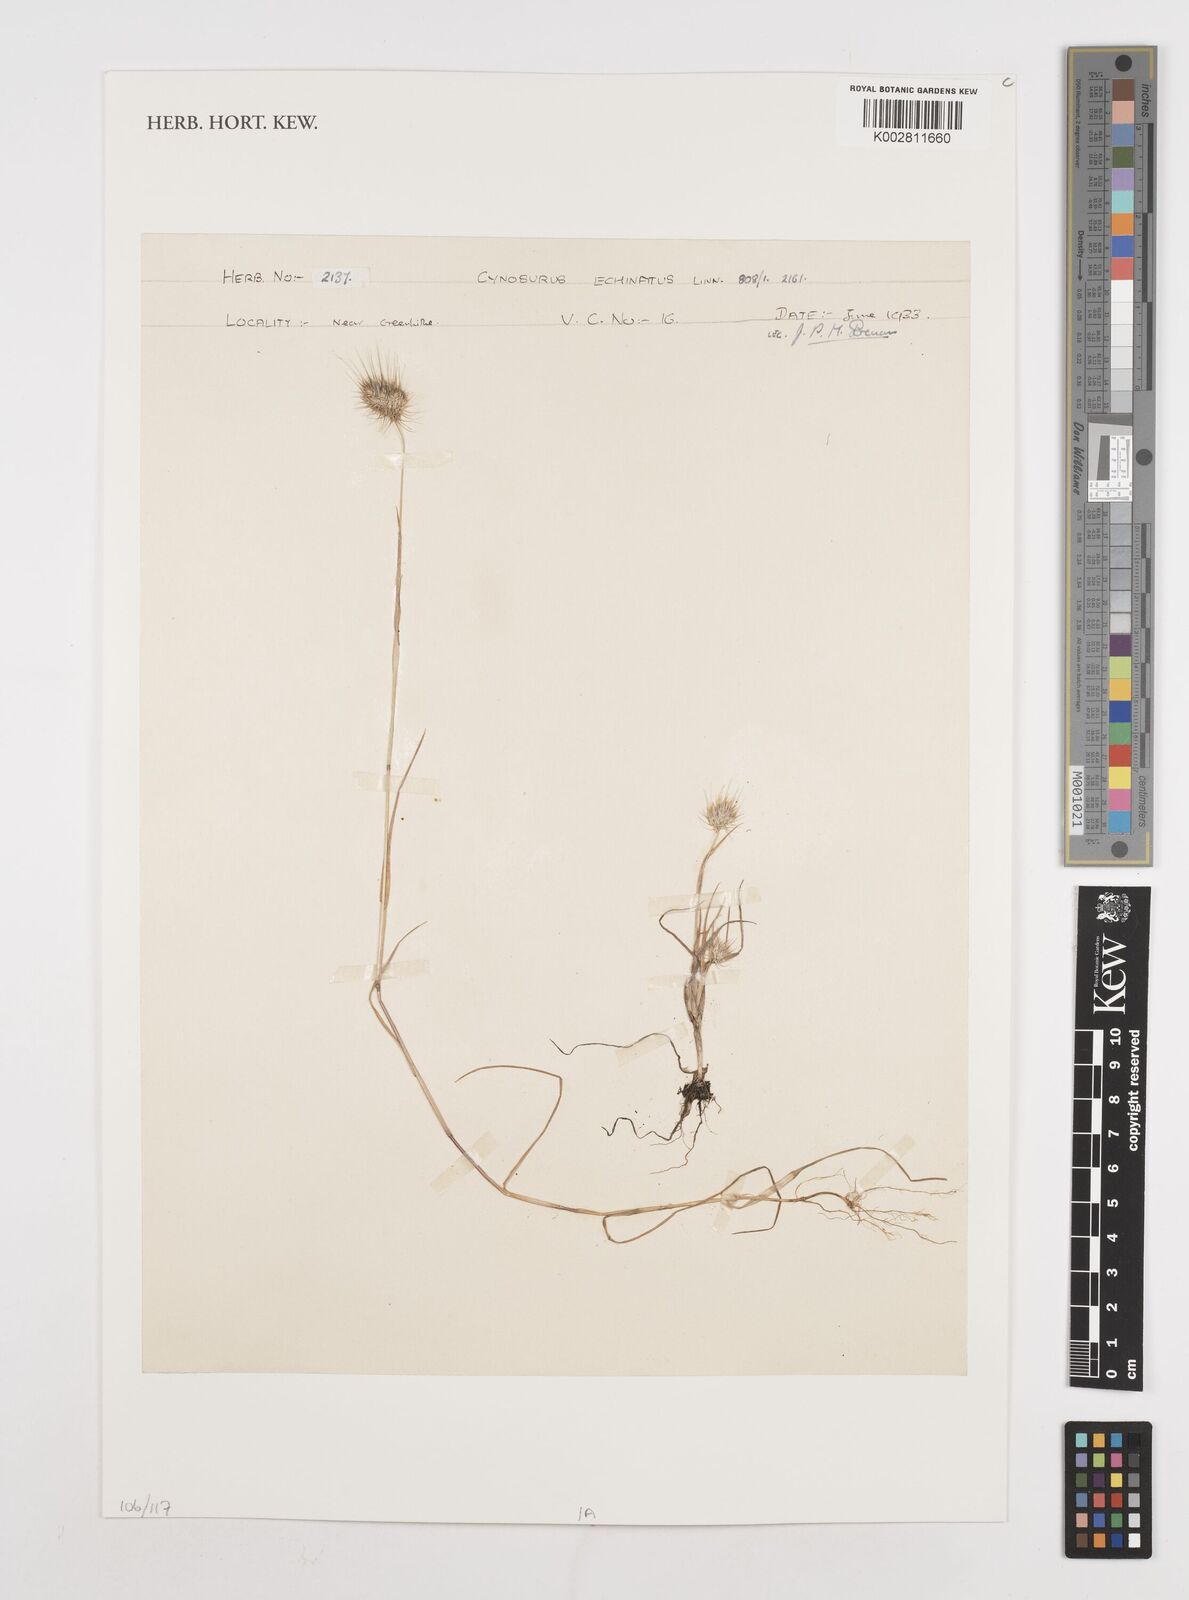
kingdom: Plantae
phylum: Tracheophyta
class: Liliopsida
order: Poales
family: Poaceae
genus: Cynosurus
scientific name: Cynosurus echinatus
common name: Rough dog's-tail
